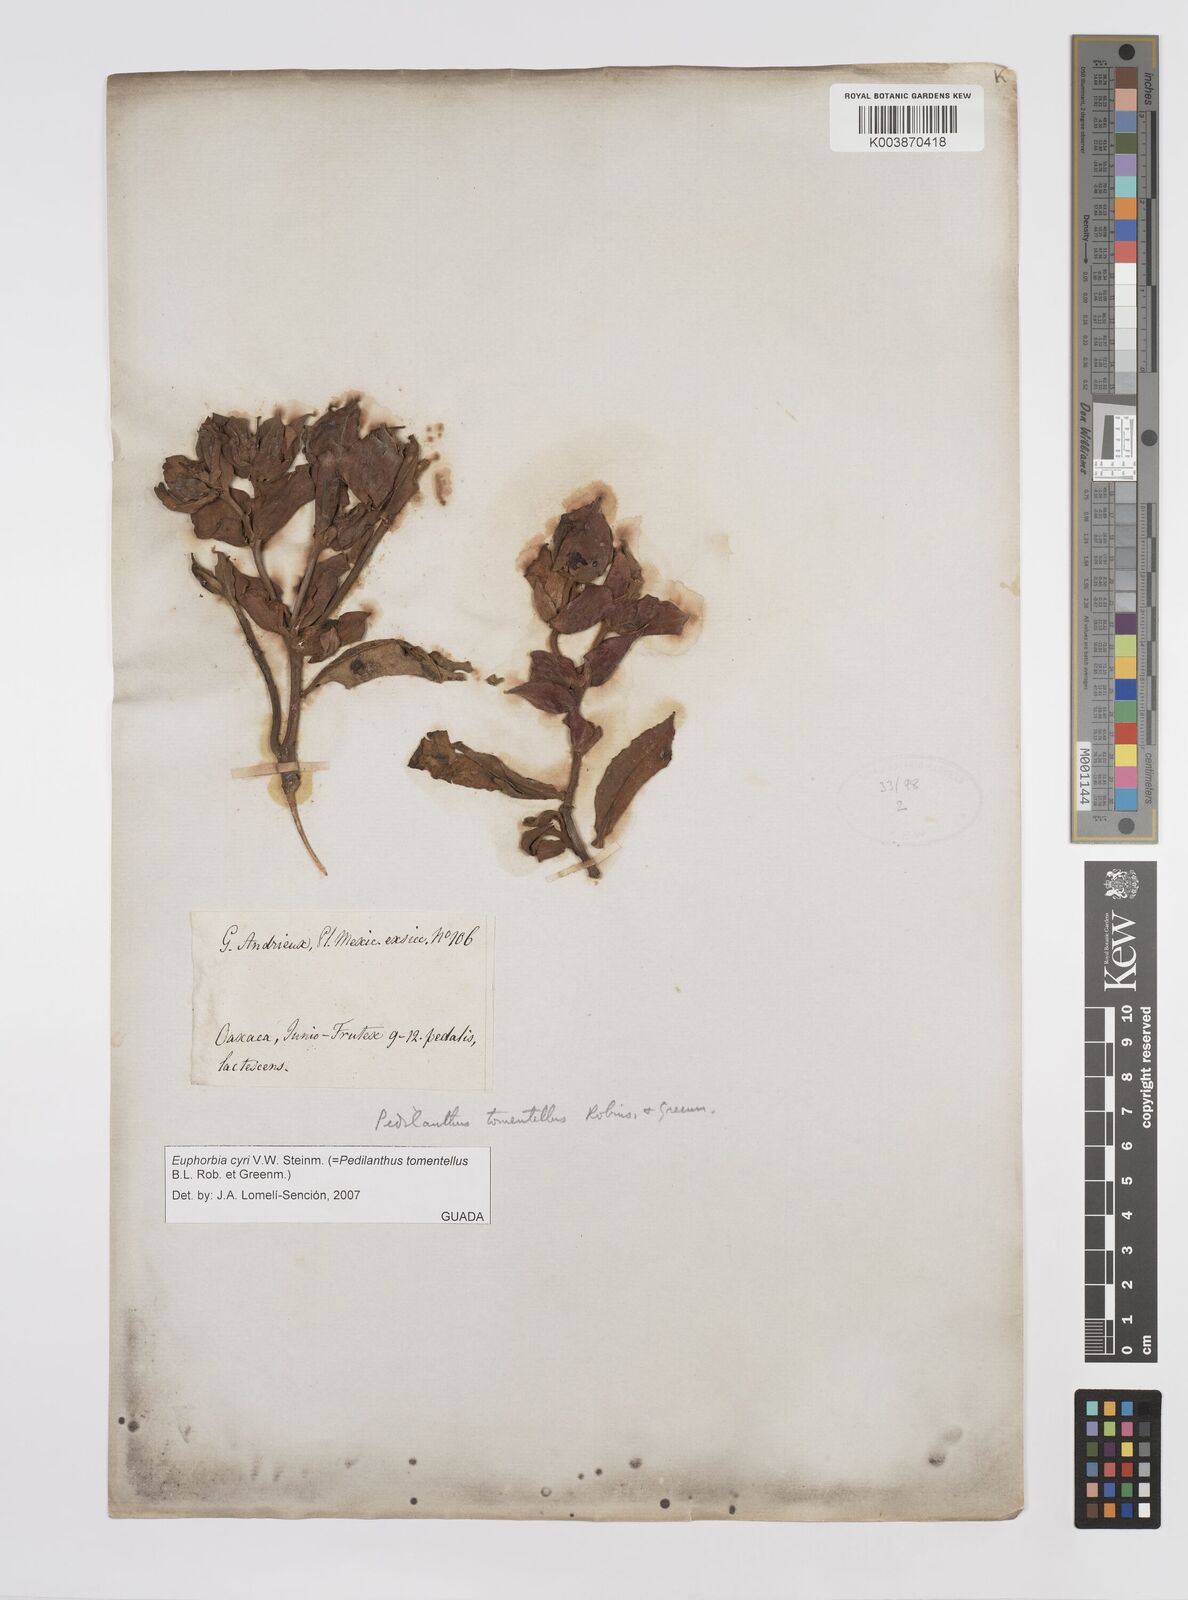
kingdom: Plantae
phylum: Tracheophyta
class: Magnoliopsida
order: Malpighiales
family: Euphorbiaceae
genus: Pedilanthus
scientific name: Pedilanthus
